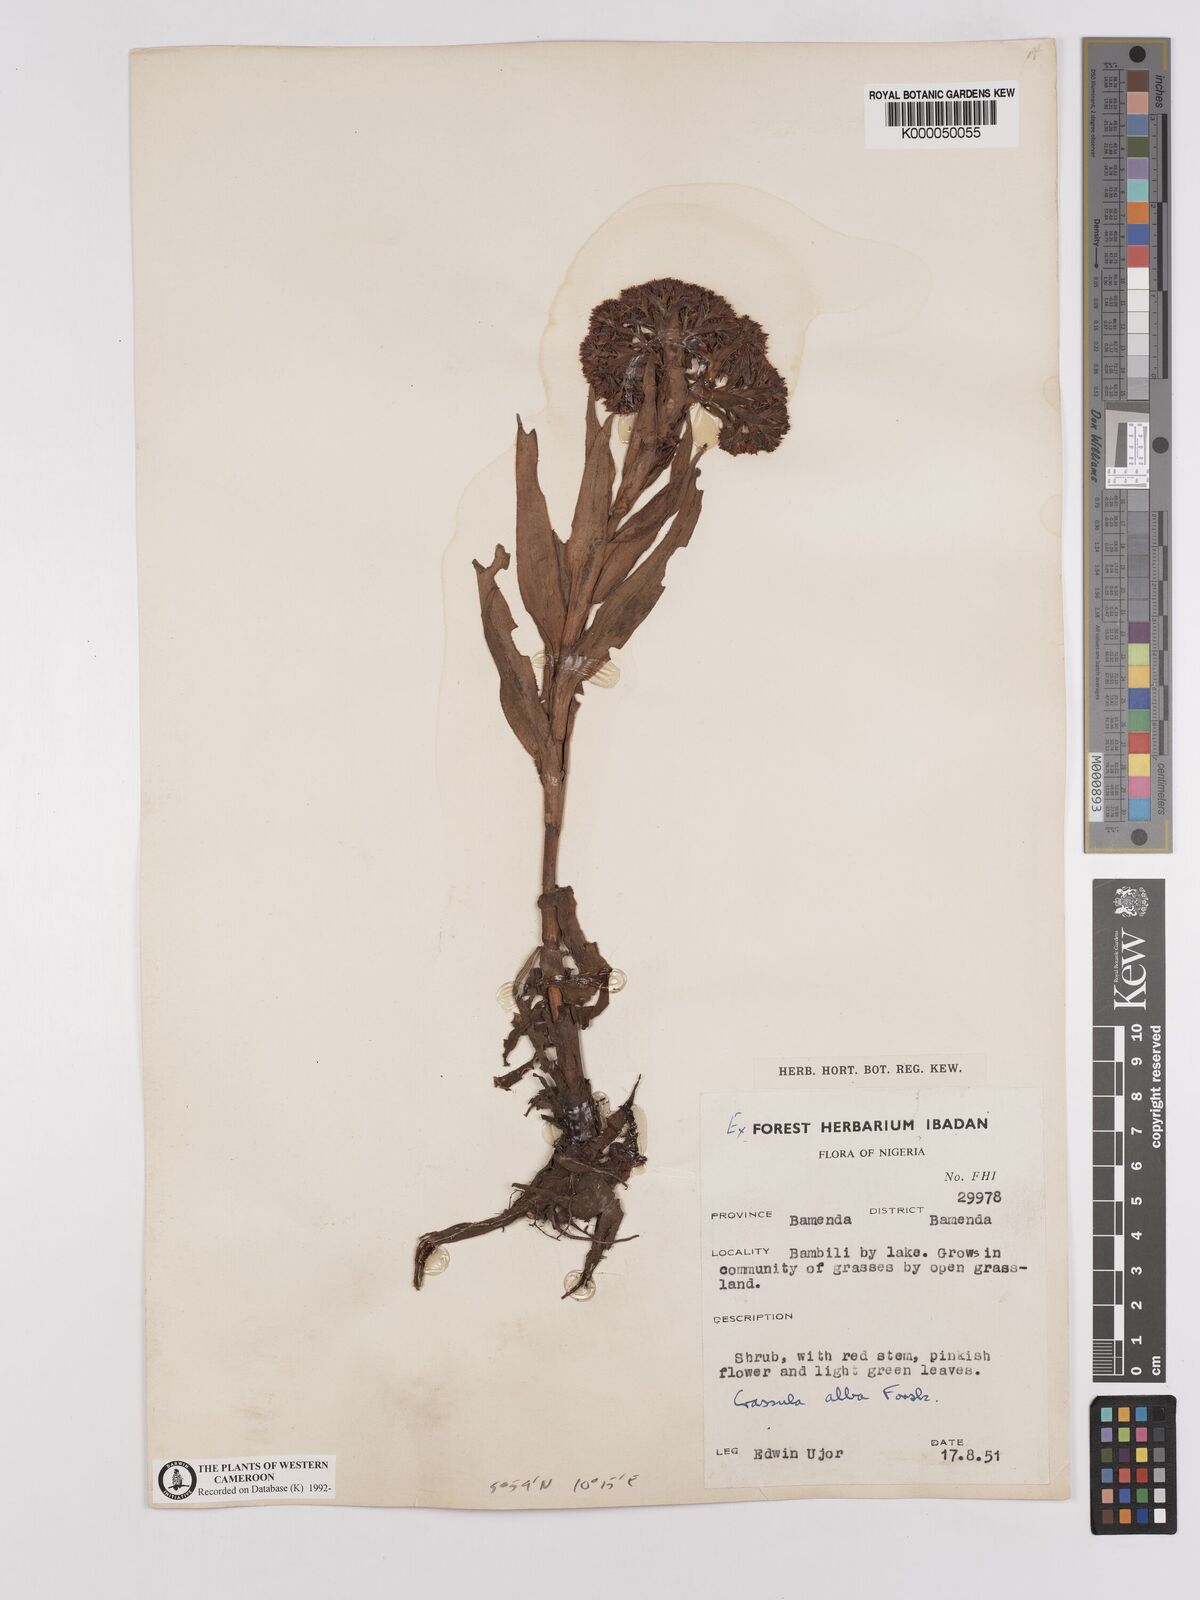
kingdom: Plantae
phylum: Tracheophyta
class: Magnoliopsida
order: Saxifragales
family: Crassulaceae
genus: Crassula
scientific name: Crassula vaginata
